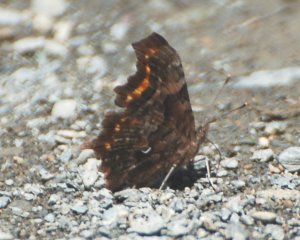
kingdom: Animalia
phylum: Arthropoda
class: Insecta
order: Lepidoptera
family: Nymphalidae
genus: Polygonia
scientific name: Polygonia faunus
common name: Green Comma
